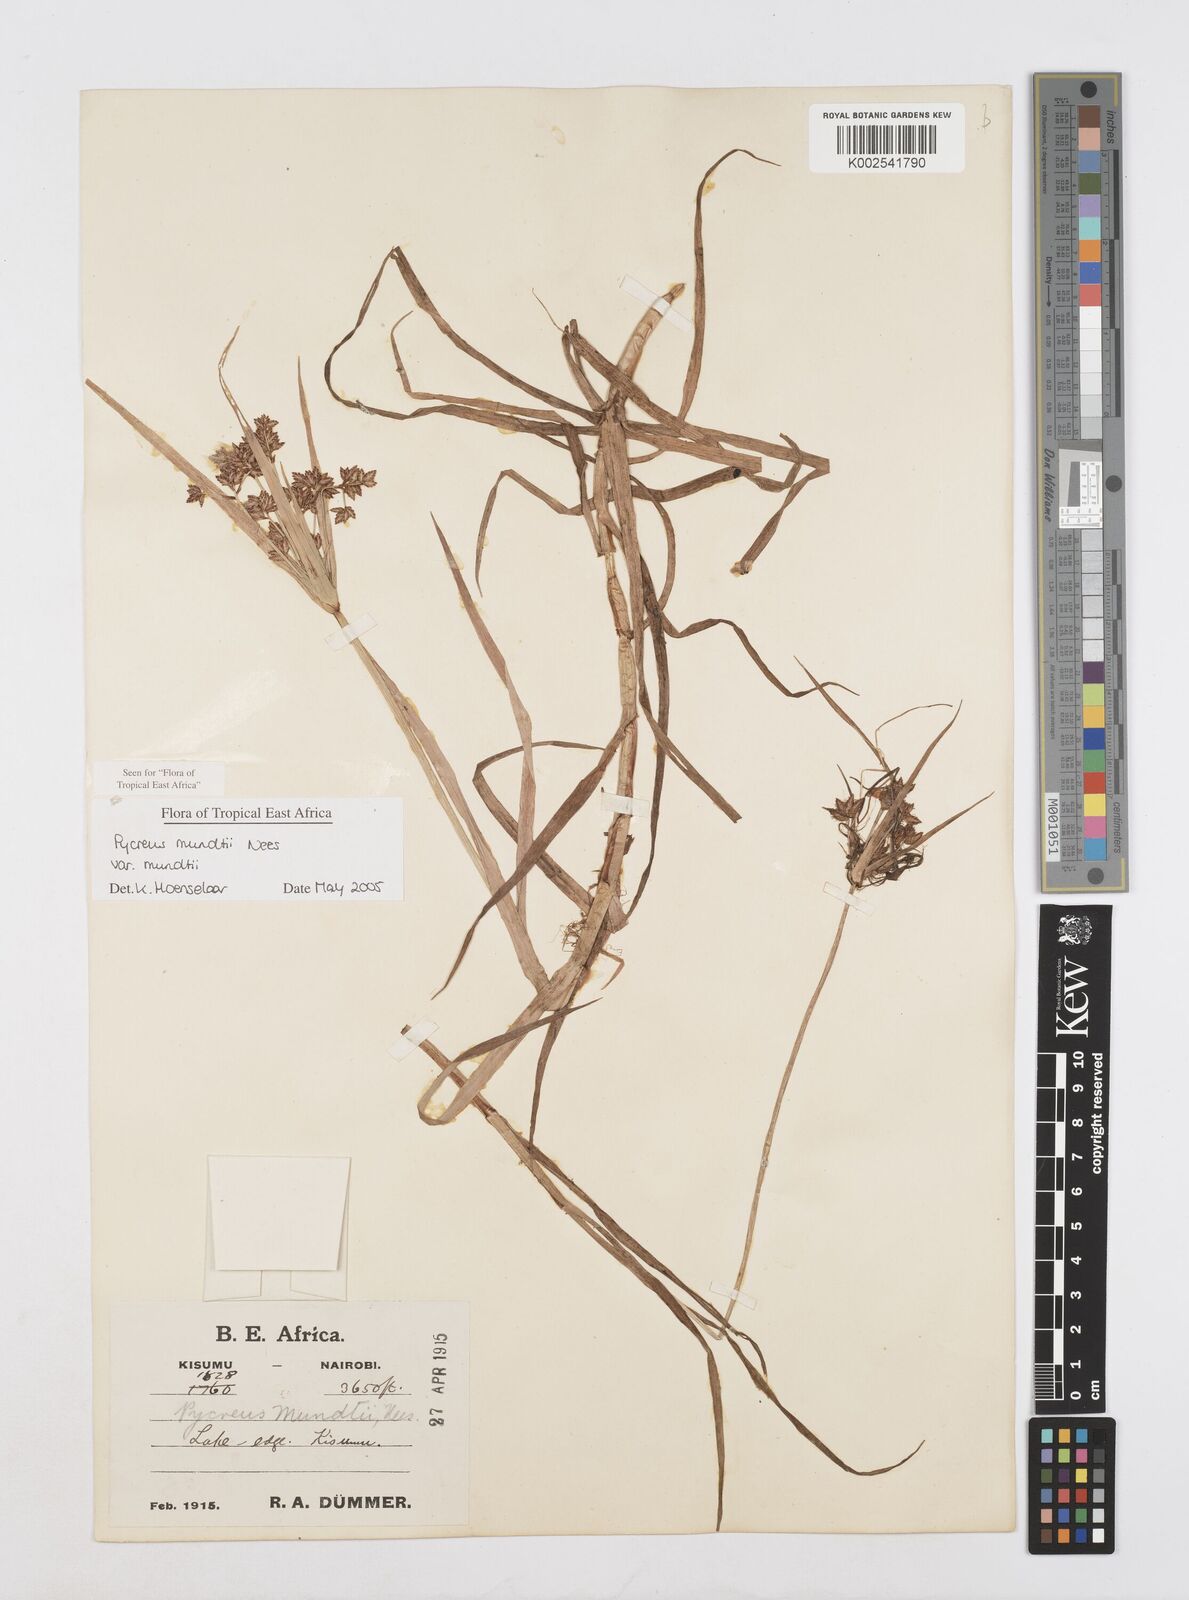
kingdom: Plantae
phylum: Tracheophyta
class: Liliopsida
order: Poales
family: Cyperaceae
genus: Cyperus
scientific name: Cyperus mundii
